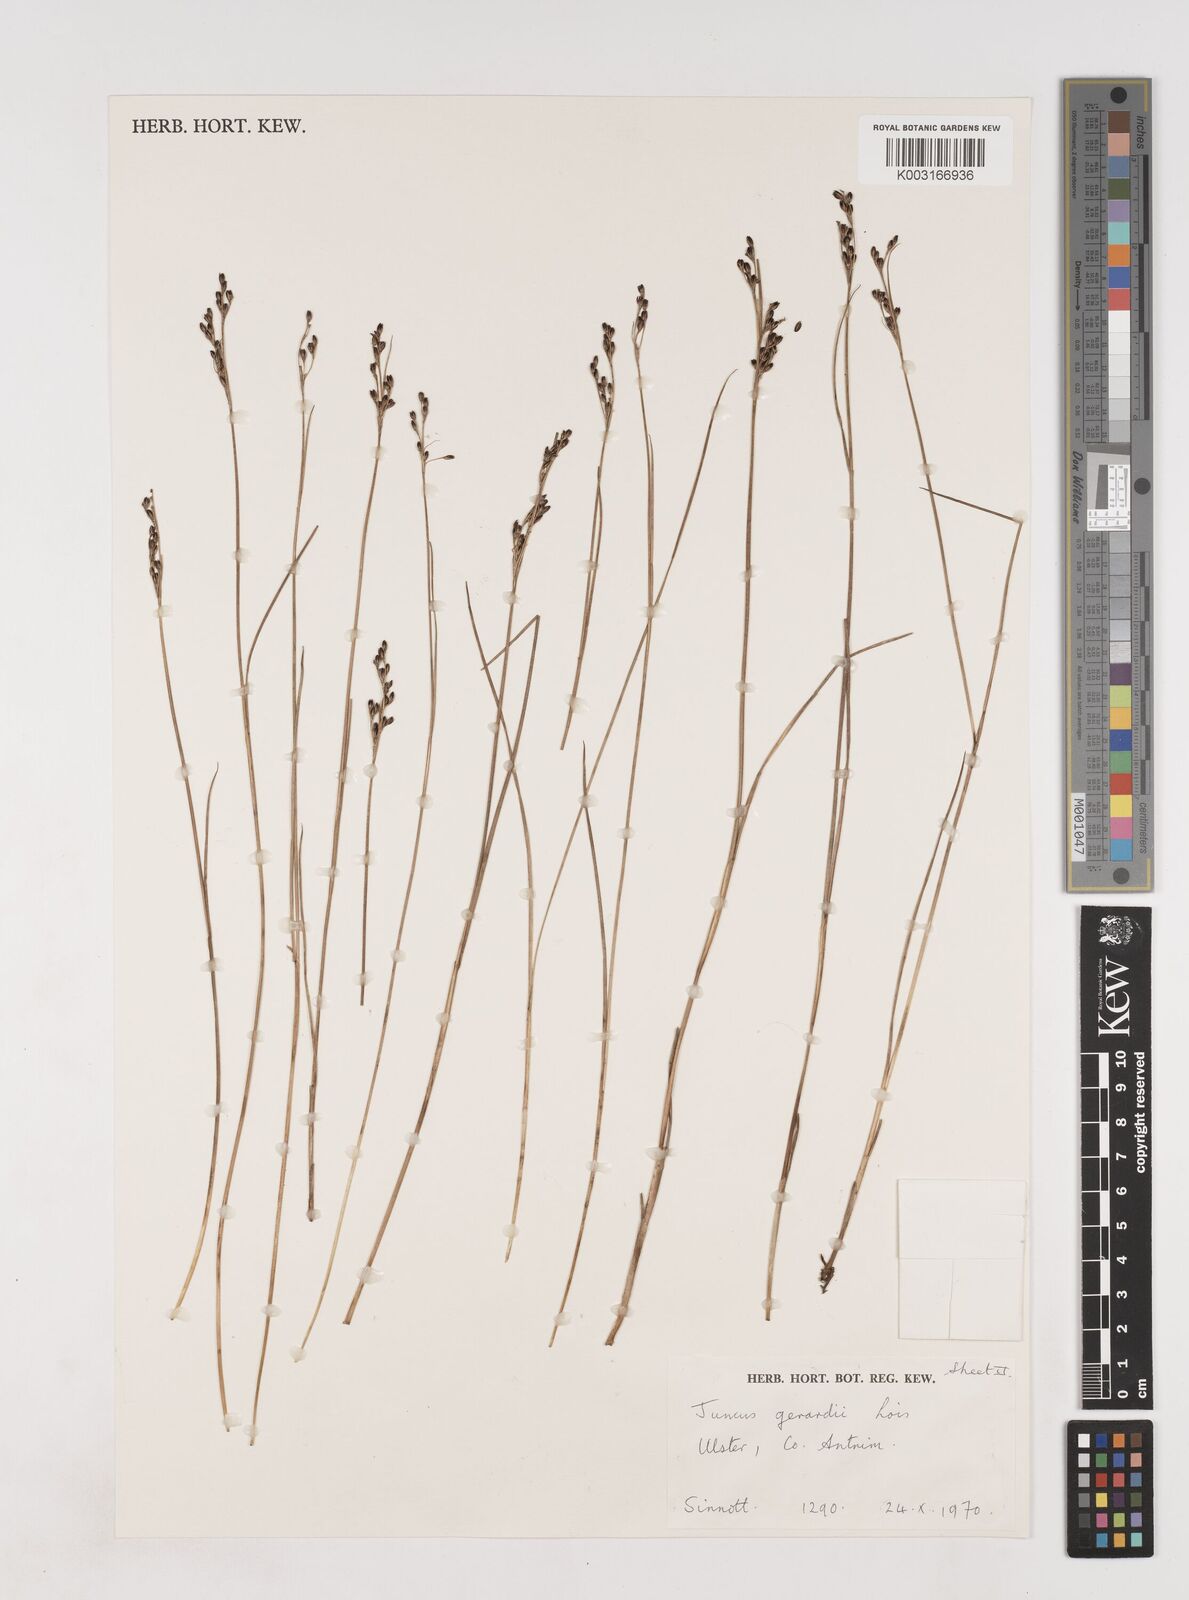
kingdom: Plantae
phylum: Tracheophyta
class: Liliopsida
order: Poales
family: Juncaceae
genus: Juncus
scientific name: Juncus gerardi
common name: Saltmarsh rush
